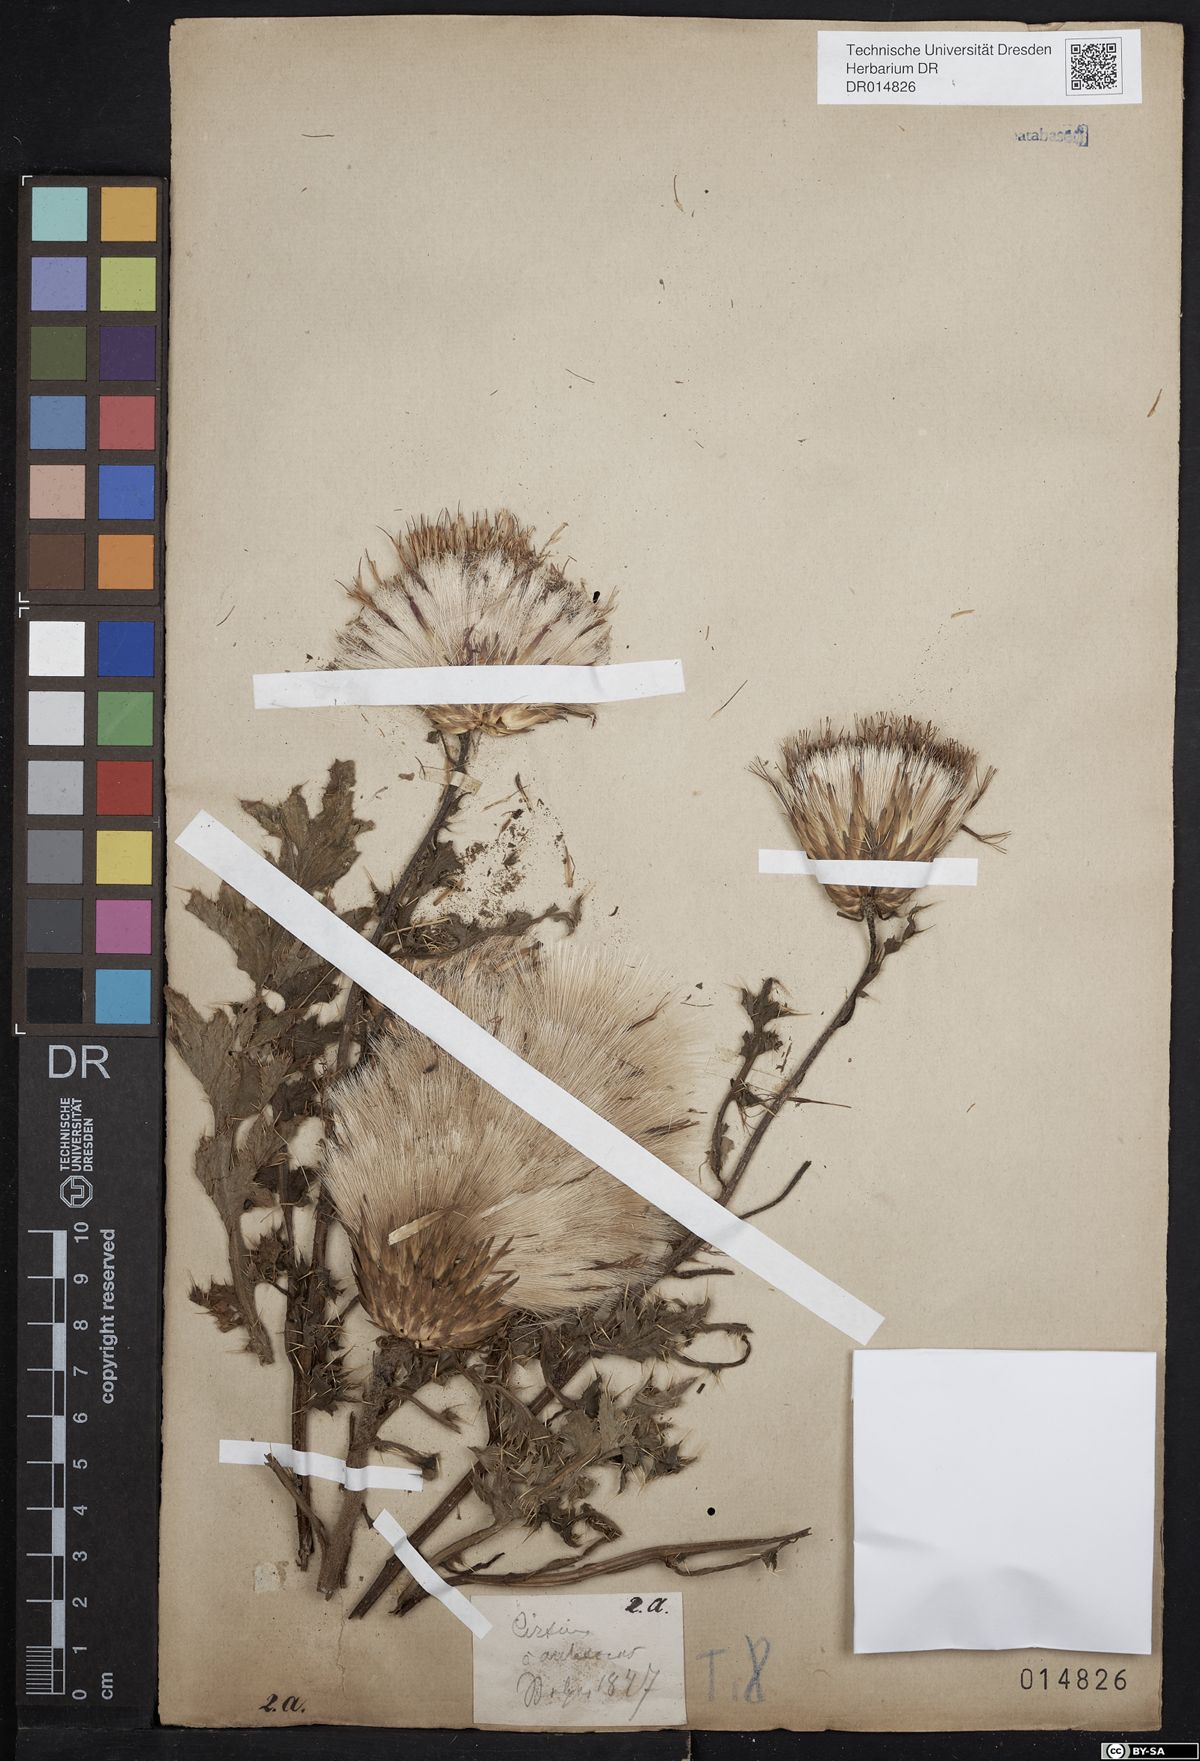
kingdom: Plantae
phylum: Tracheophyta
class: Magnoliopsida
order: Asterales
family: Asteraceae
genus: Cirsium
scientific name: Cirsium acaulon
